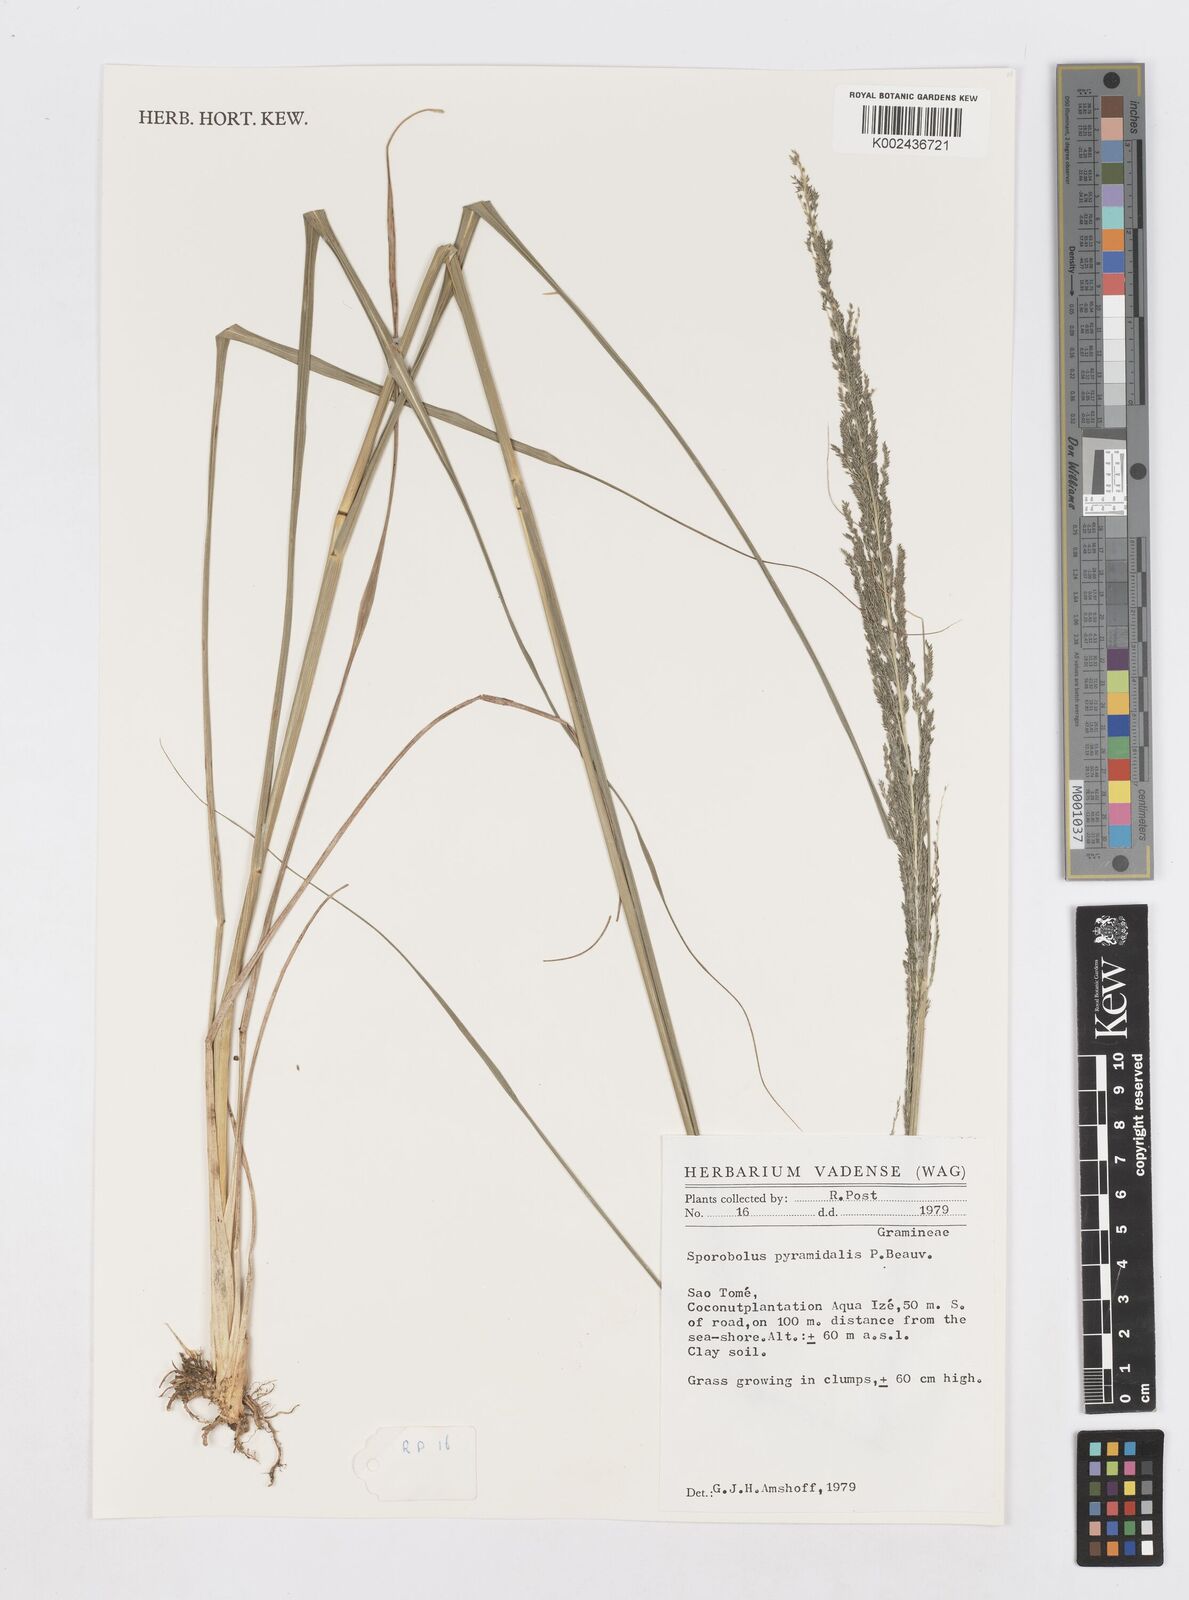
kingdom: Plantae
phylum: Tracheophyta
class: Liliopsida
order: Poales
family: Poaceae
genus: Sporobolus
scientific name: Sporobolus pyramidalis
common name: West indian dropseed
